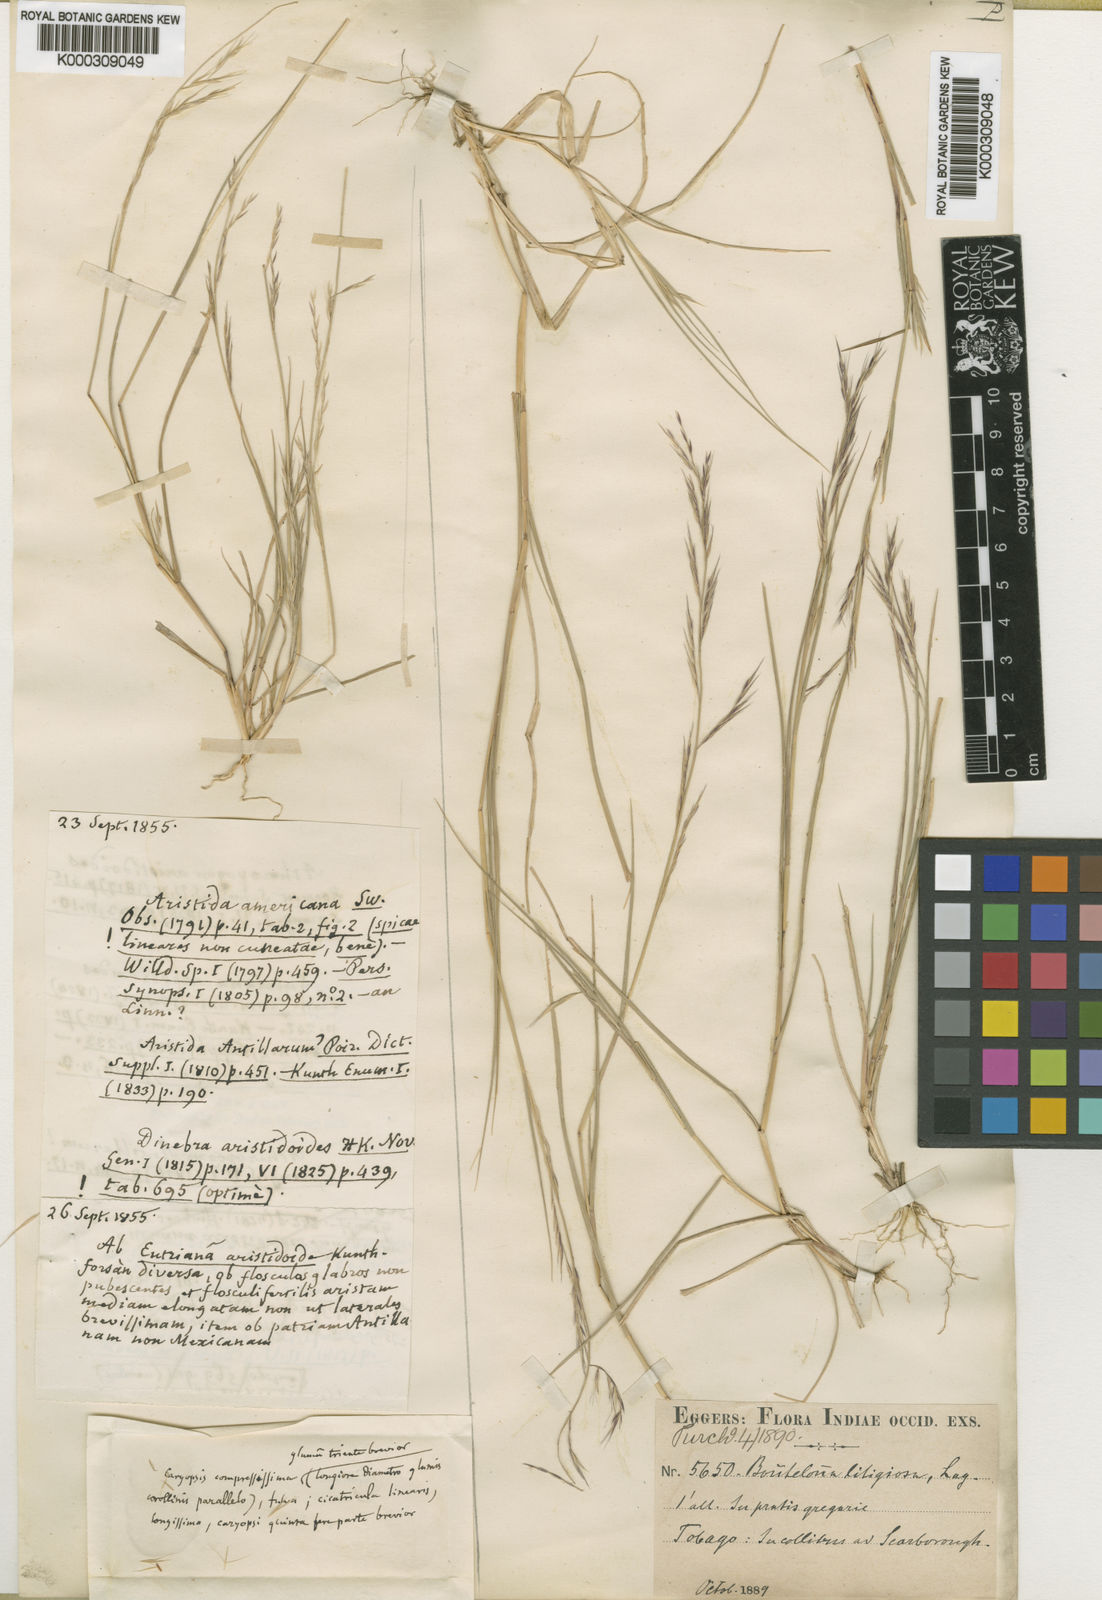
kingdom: Plantae
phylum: Tracheophyta
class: Liliopsida
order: Poales
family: Poaceae
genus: Bouteloua
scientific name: Bouteloua americana
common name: Mule grass
